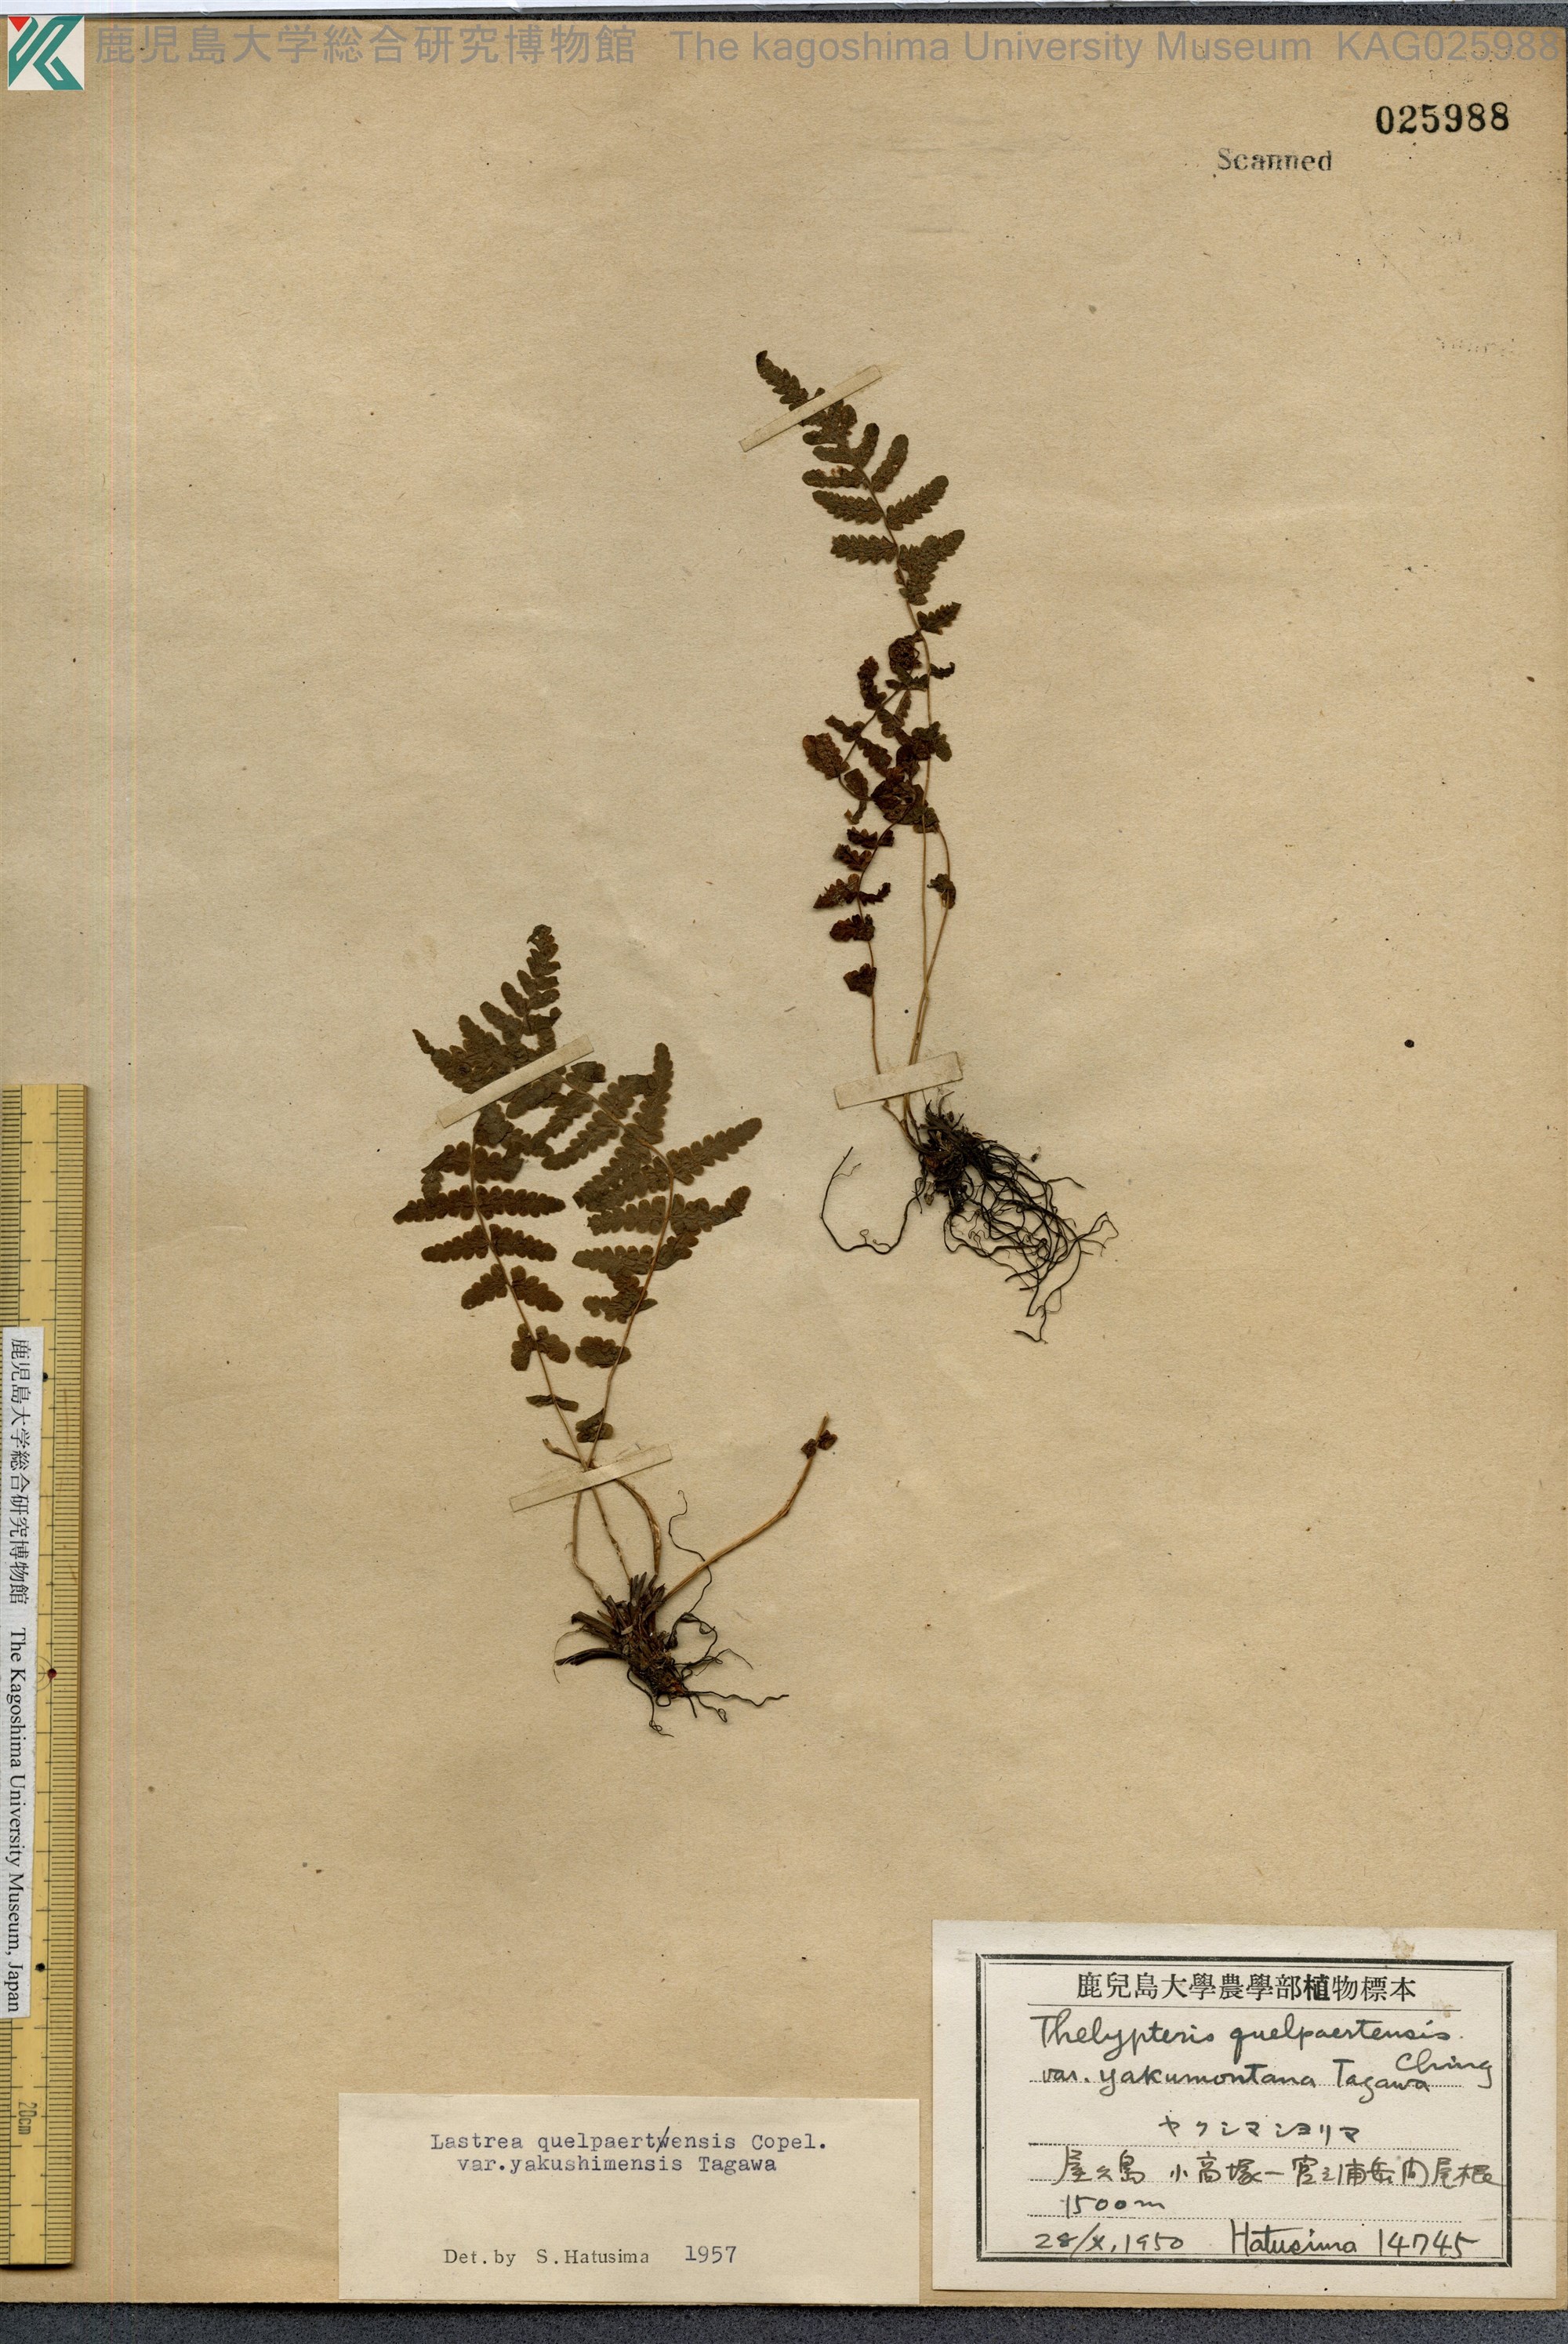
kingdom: Plantae
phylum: Tracheophyta
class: Polypodiopsida
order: Polypodiales
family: Thelypteridaceae
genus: Oreopteris
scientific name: Oreopteris quelpartensis
